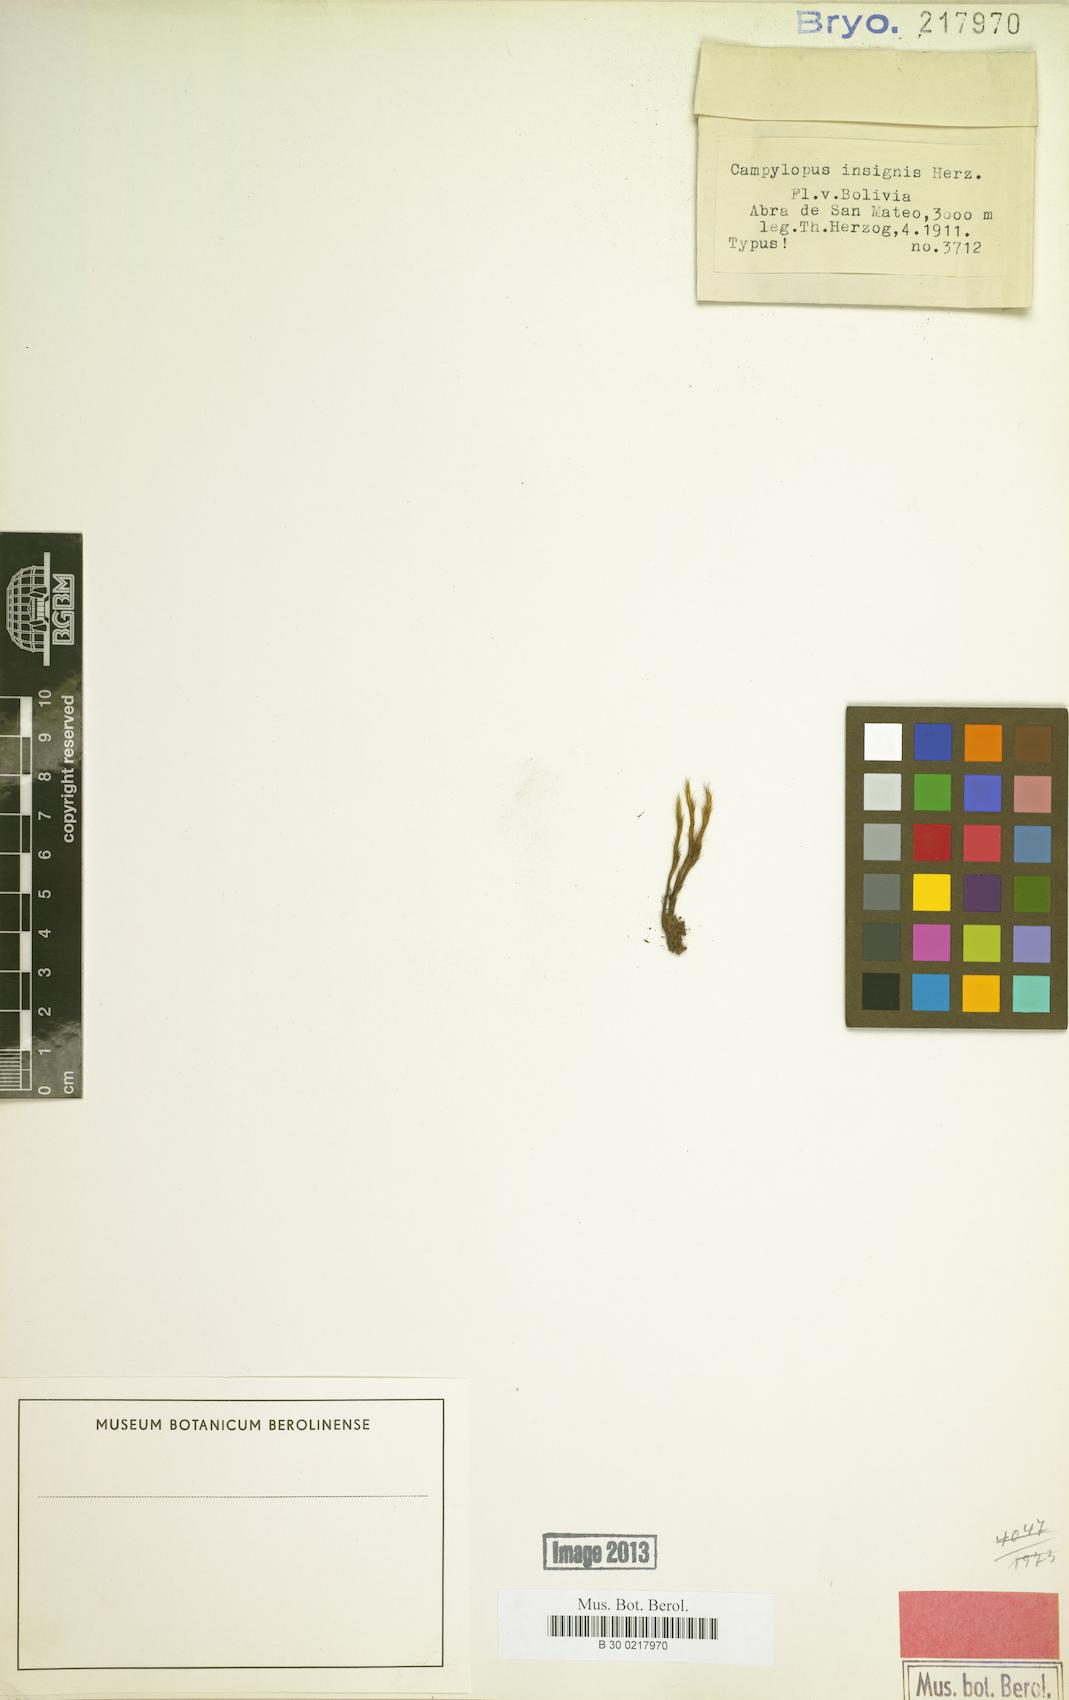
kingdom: Plantae
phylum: Bryophyta
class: Bryopsida
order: Dicranales
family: Leucobryaceae
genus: Campylopus
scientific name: Campylopus nivalis
